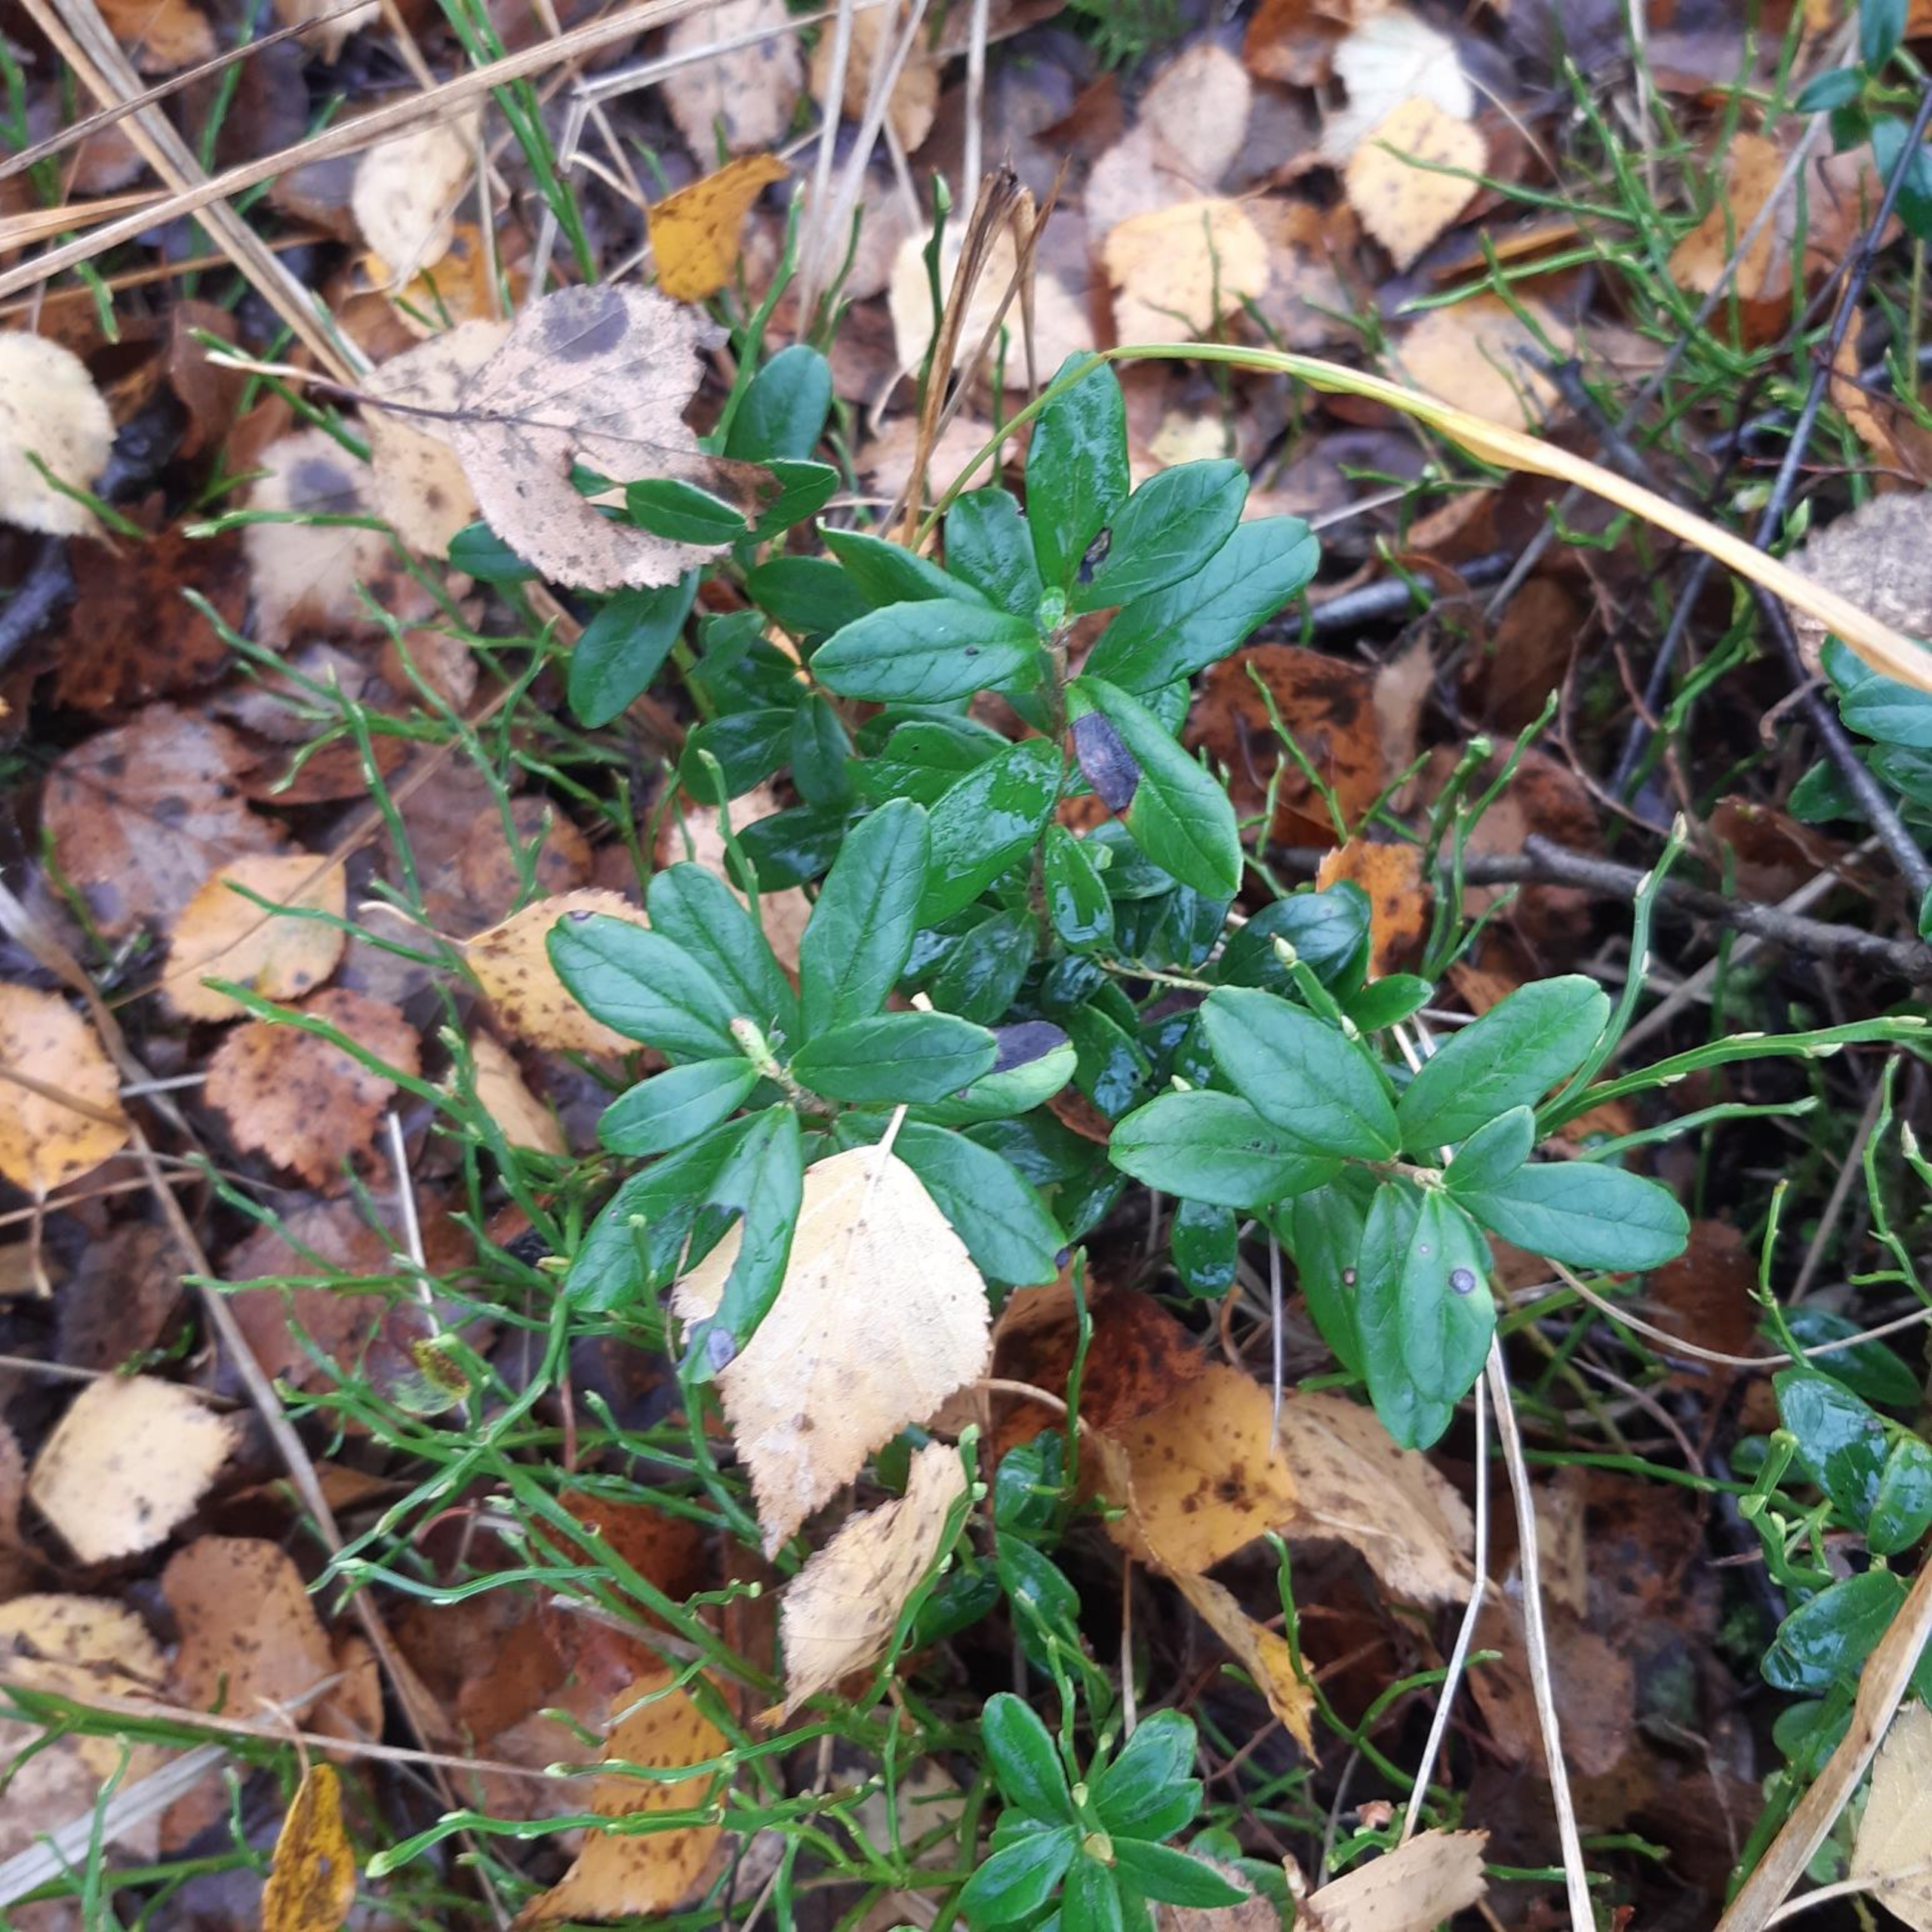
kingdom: Plantae
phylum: Tracheophyta
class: Magnoliopsida
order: Ericales
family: Ericaceae
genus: Vaccinium
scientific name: Vaccinium vitis-idaea
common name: Tyttebær
